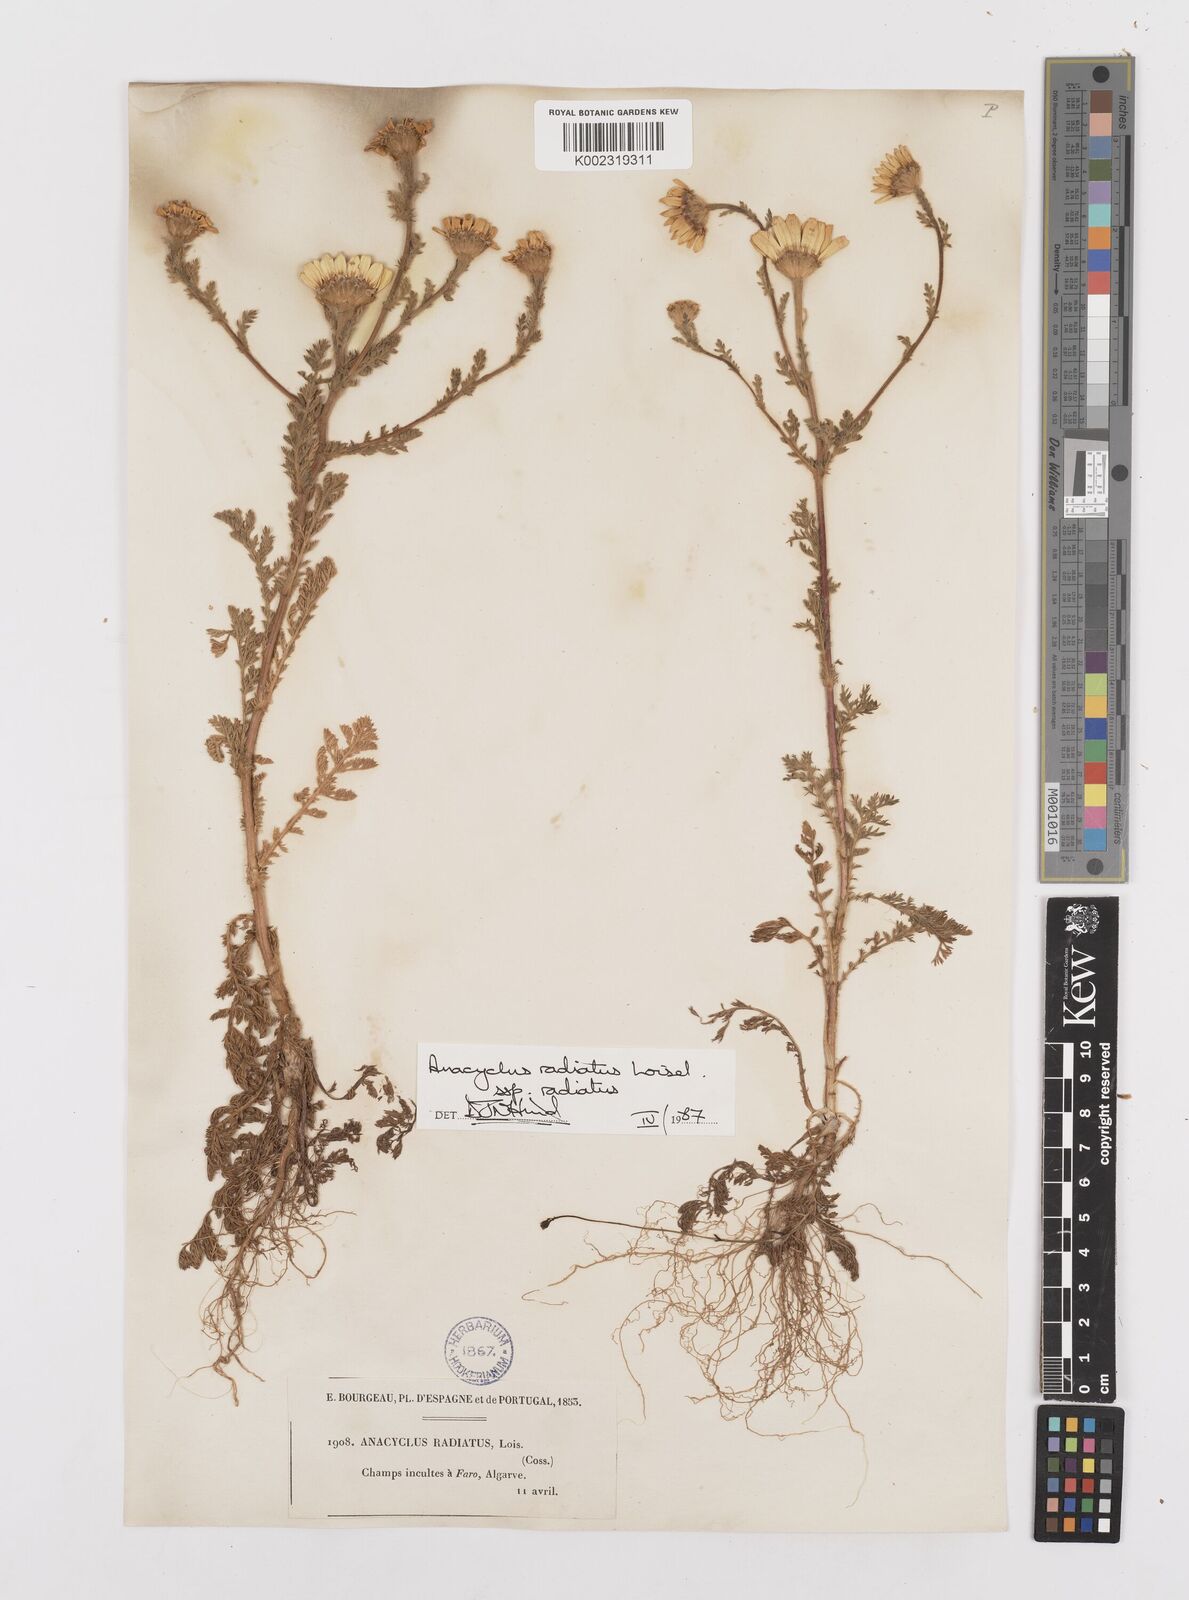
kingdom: Plantae
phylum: Tracheophyta
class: Magnoliopsida
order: Asterales
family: Asteraceae
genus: Anacyclus
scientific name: Anacyclus radiatus
